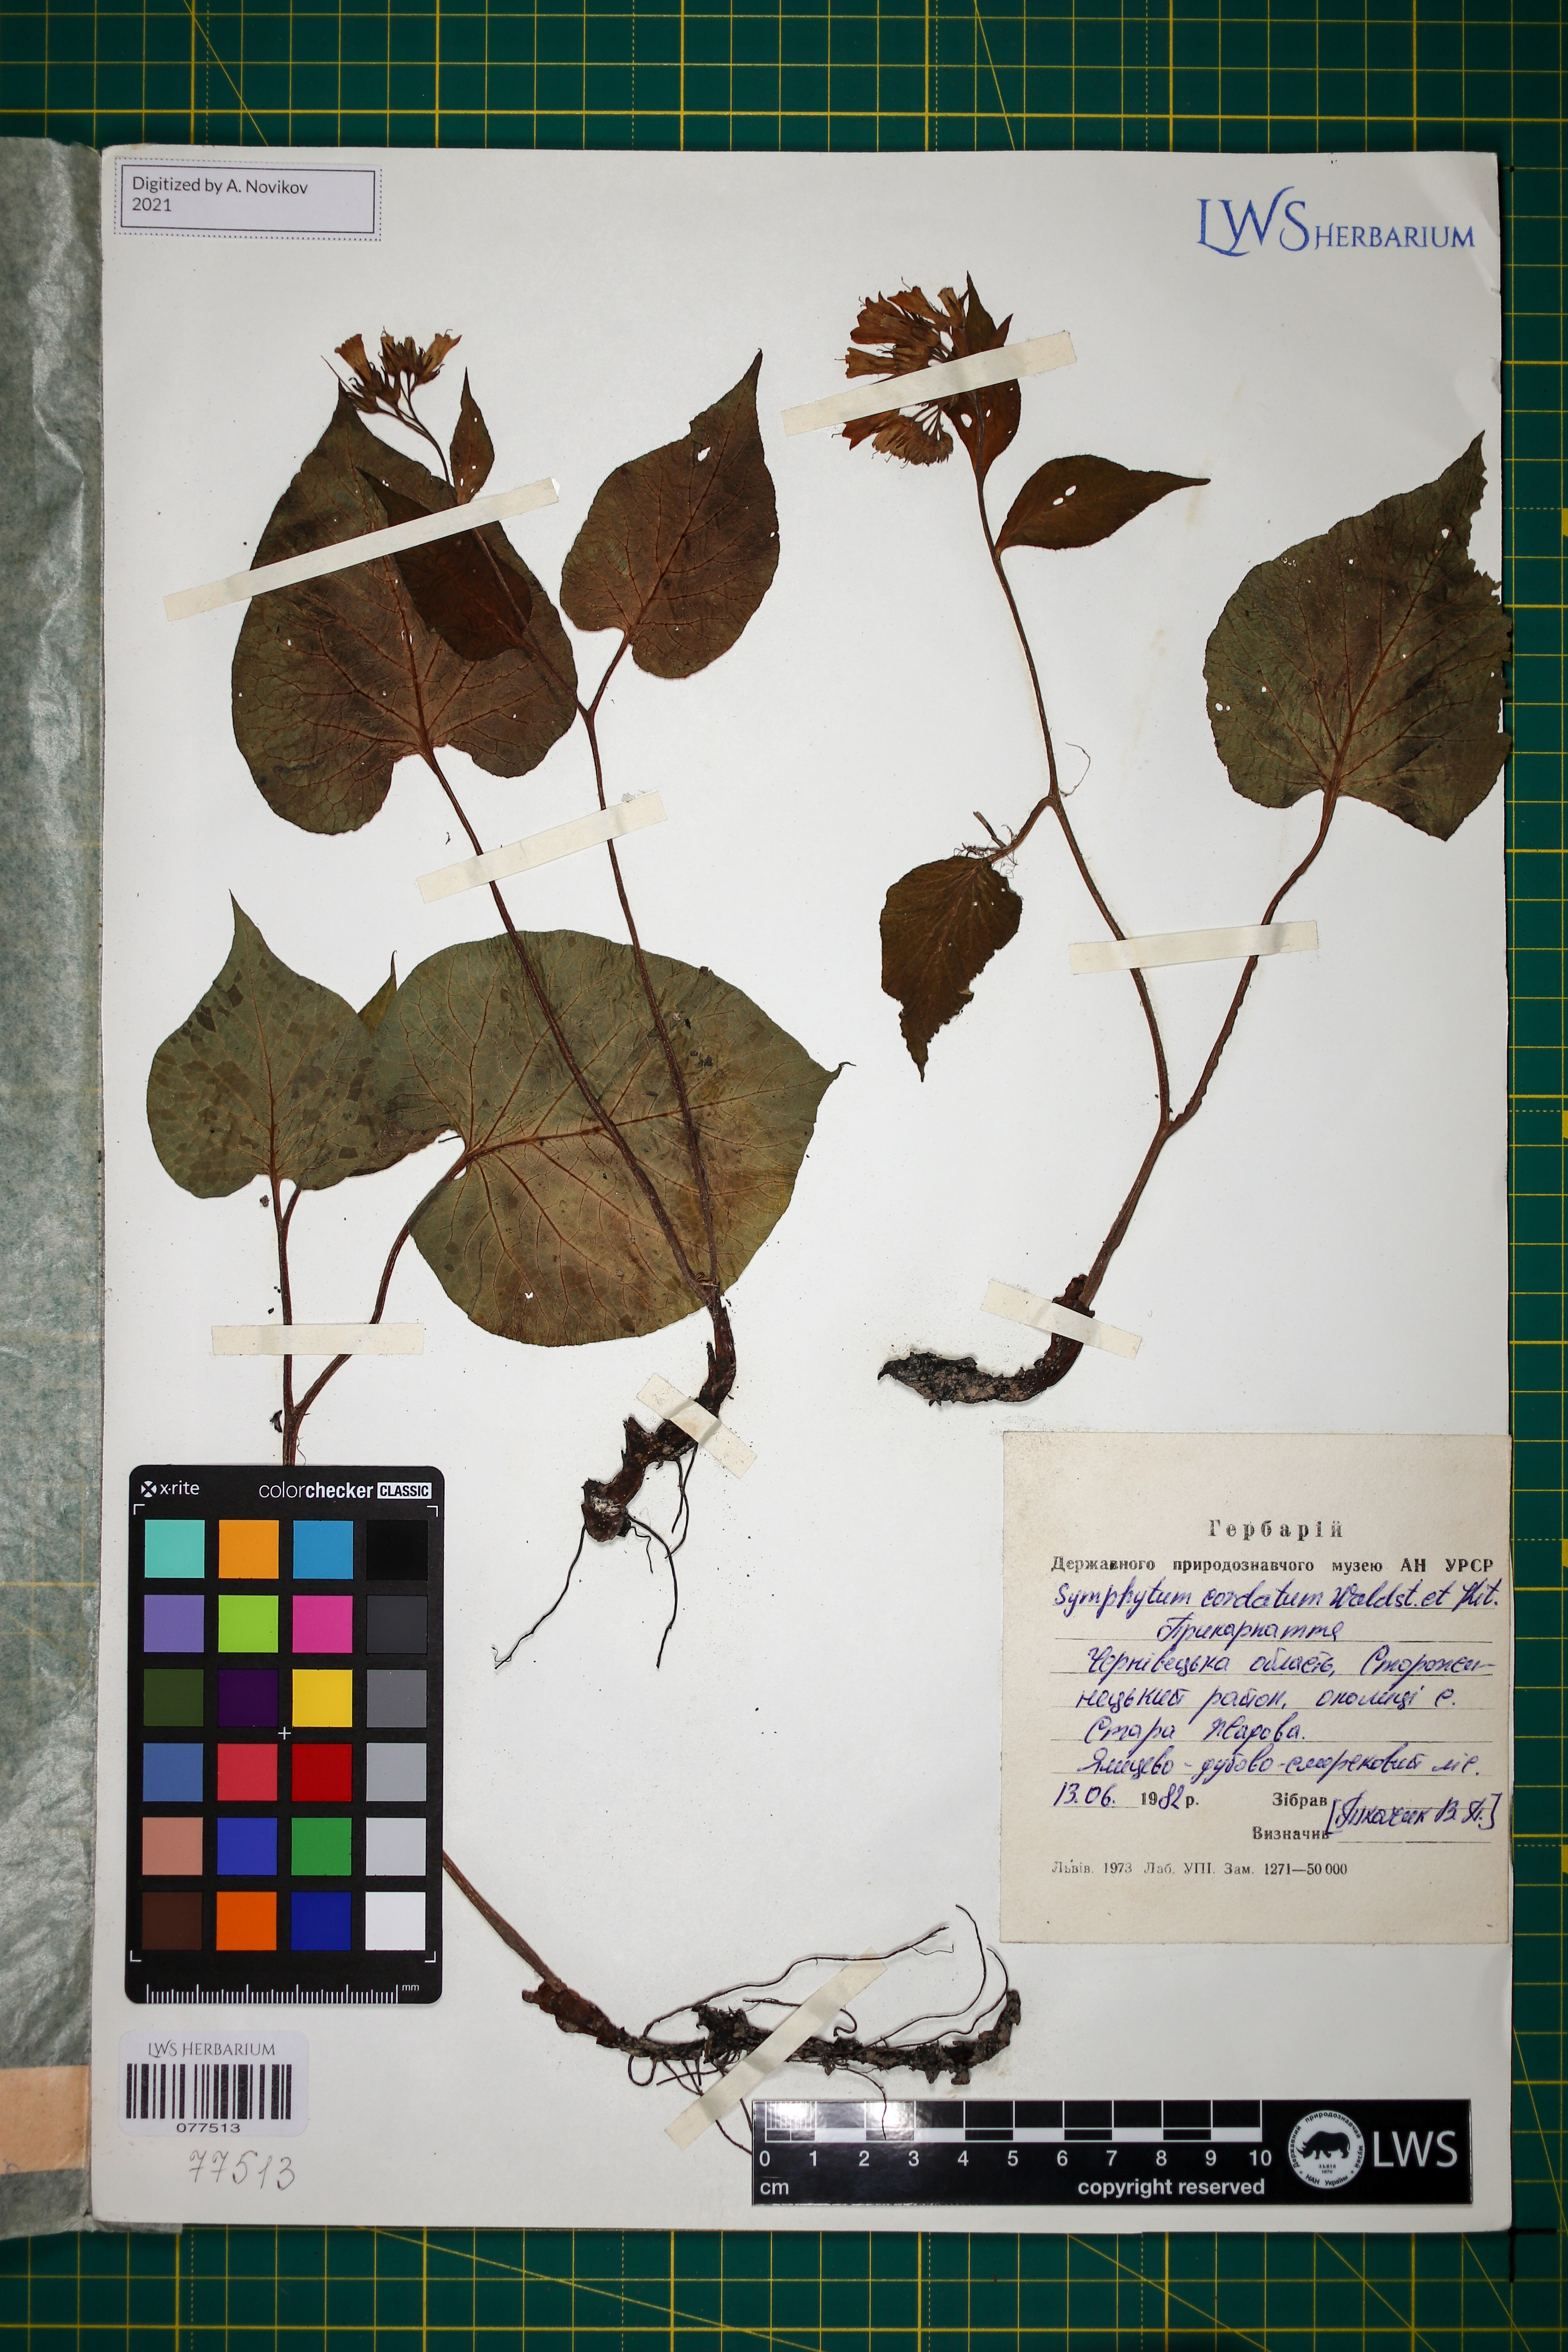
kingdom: Plantae
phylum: Tracheophyta
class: Magnoliopsida
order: Boraginales
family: Boraginaceae
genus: Symphytum
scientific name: Symphytum cordatum
